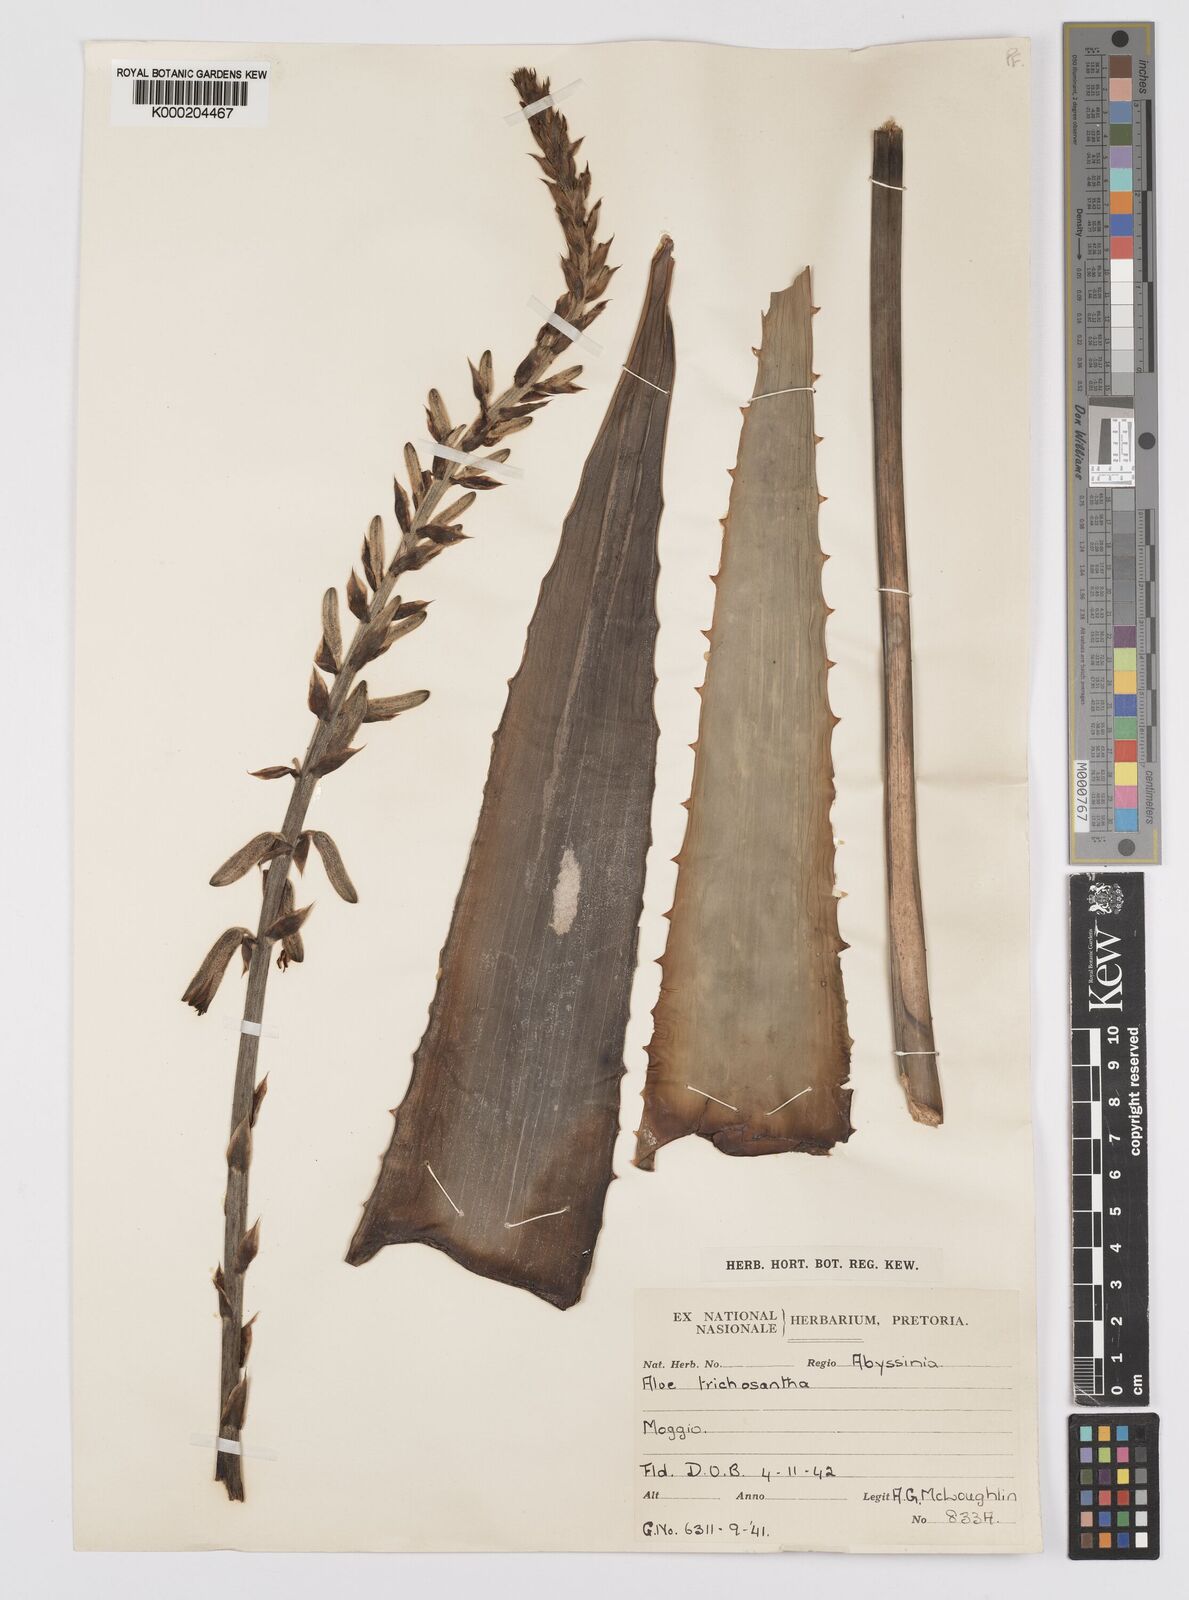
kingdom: Plantae
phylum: Tracheophyta
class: Liliopsida
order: Asparagales
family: Asphodelaceae
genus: Aloe
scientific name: Aloe trichosantha
